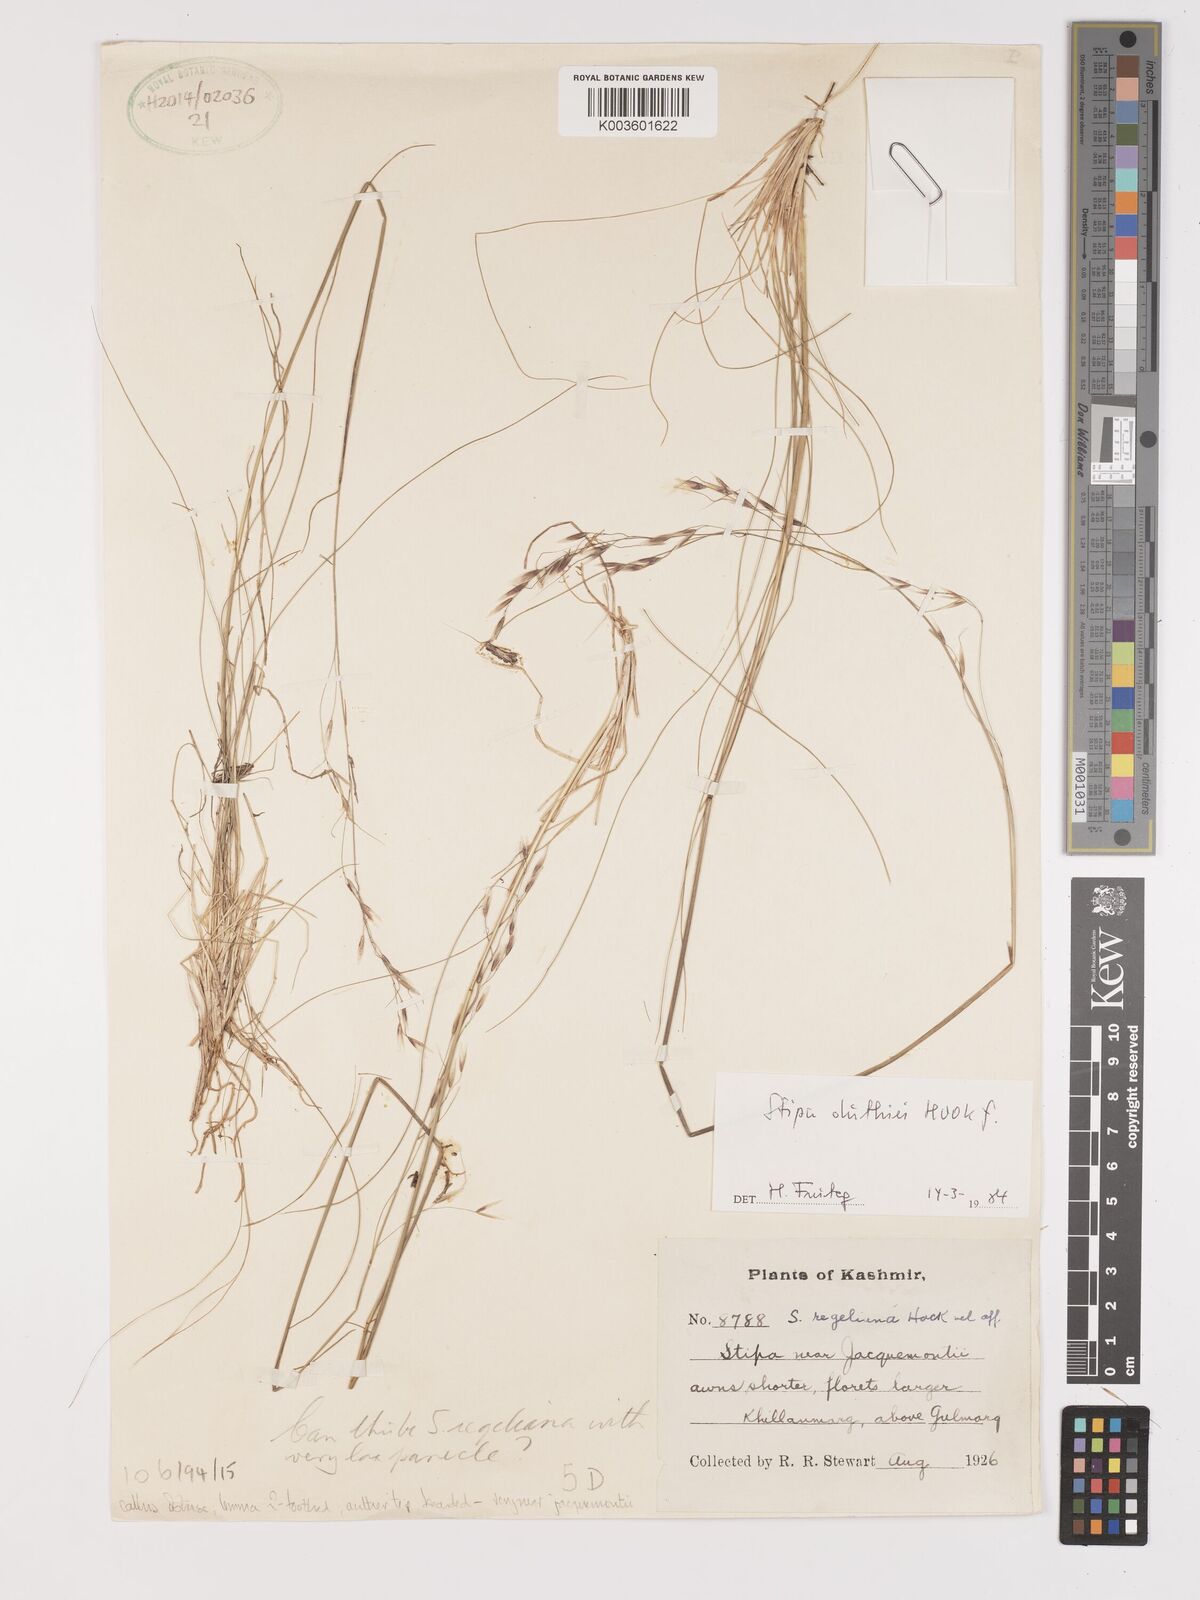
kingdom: Plantae
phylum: Tracheophyta
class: Liliopsida
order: Poales
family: Poaceae
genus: Stipa
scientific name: Stipa regeliana
